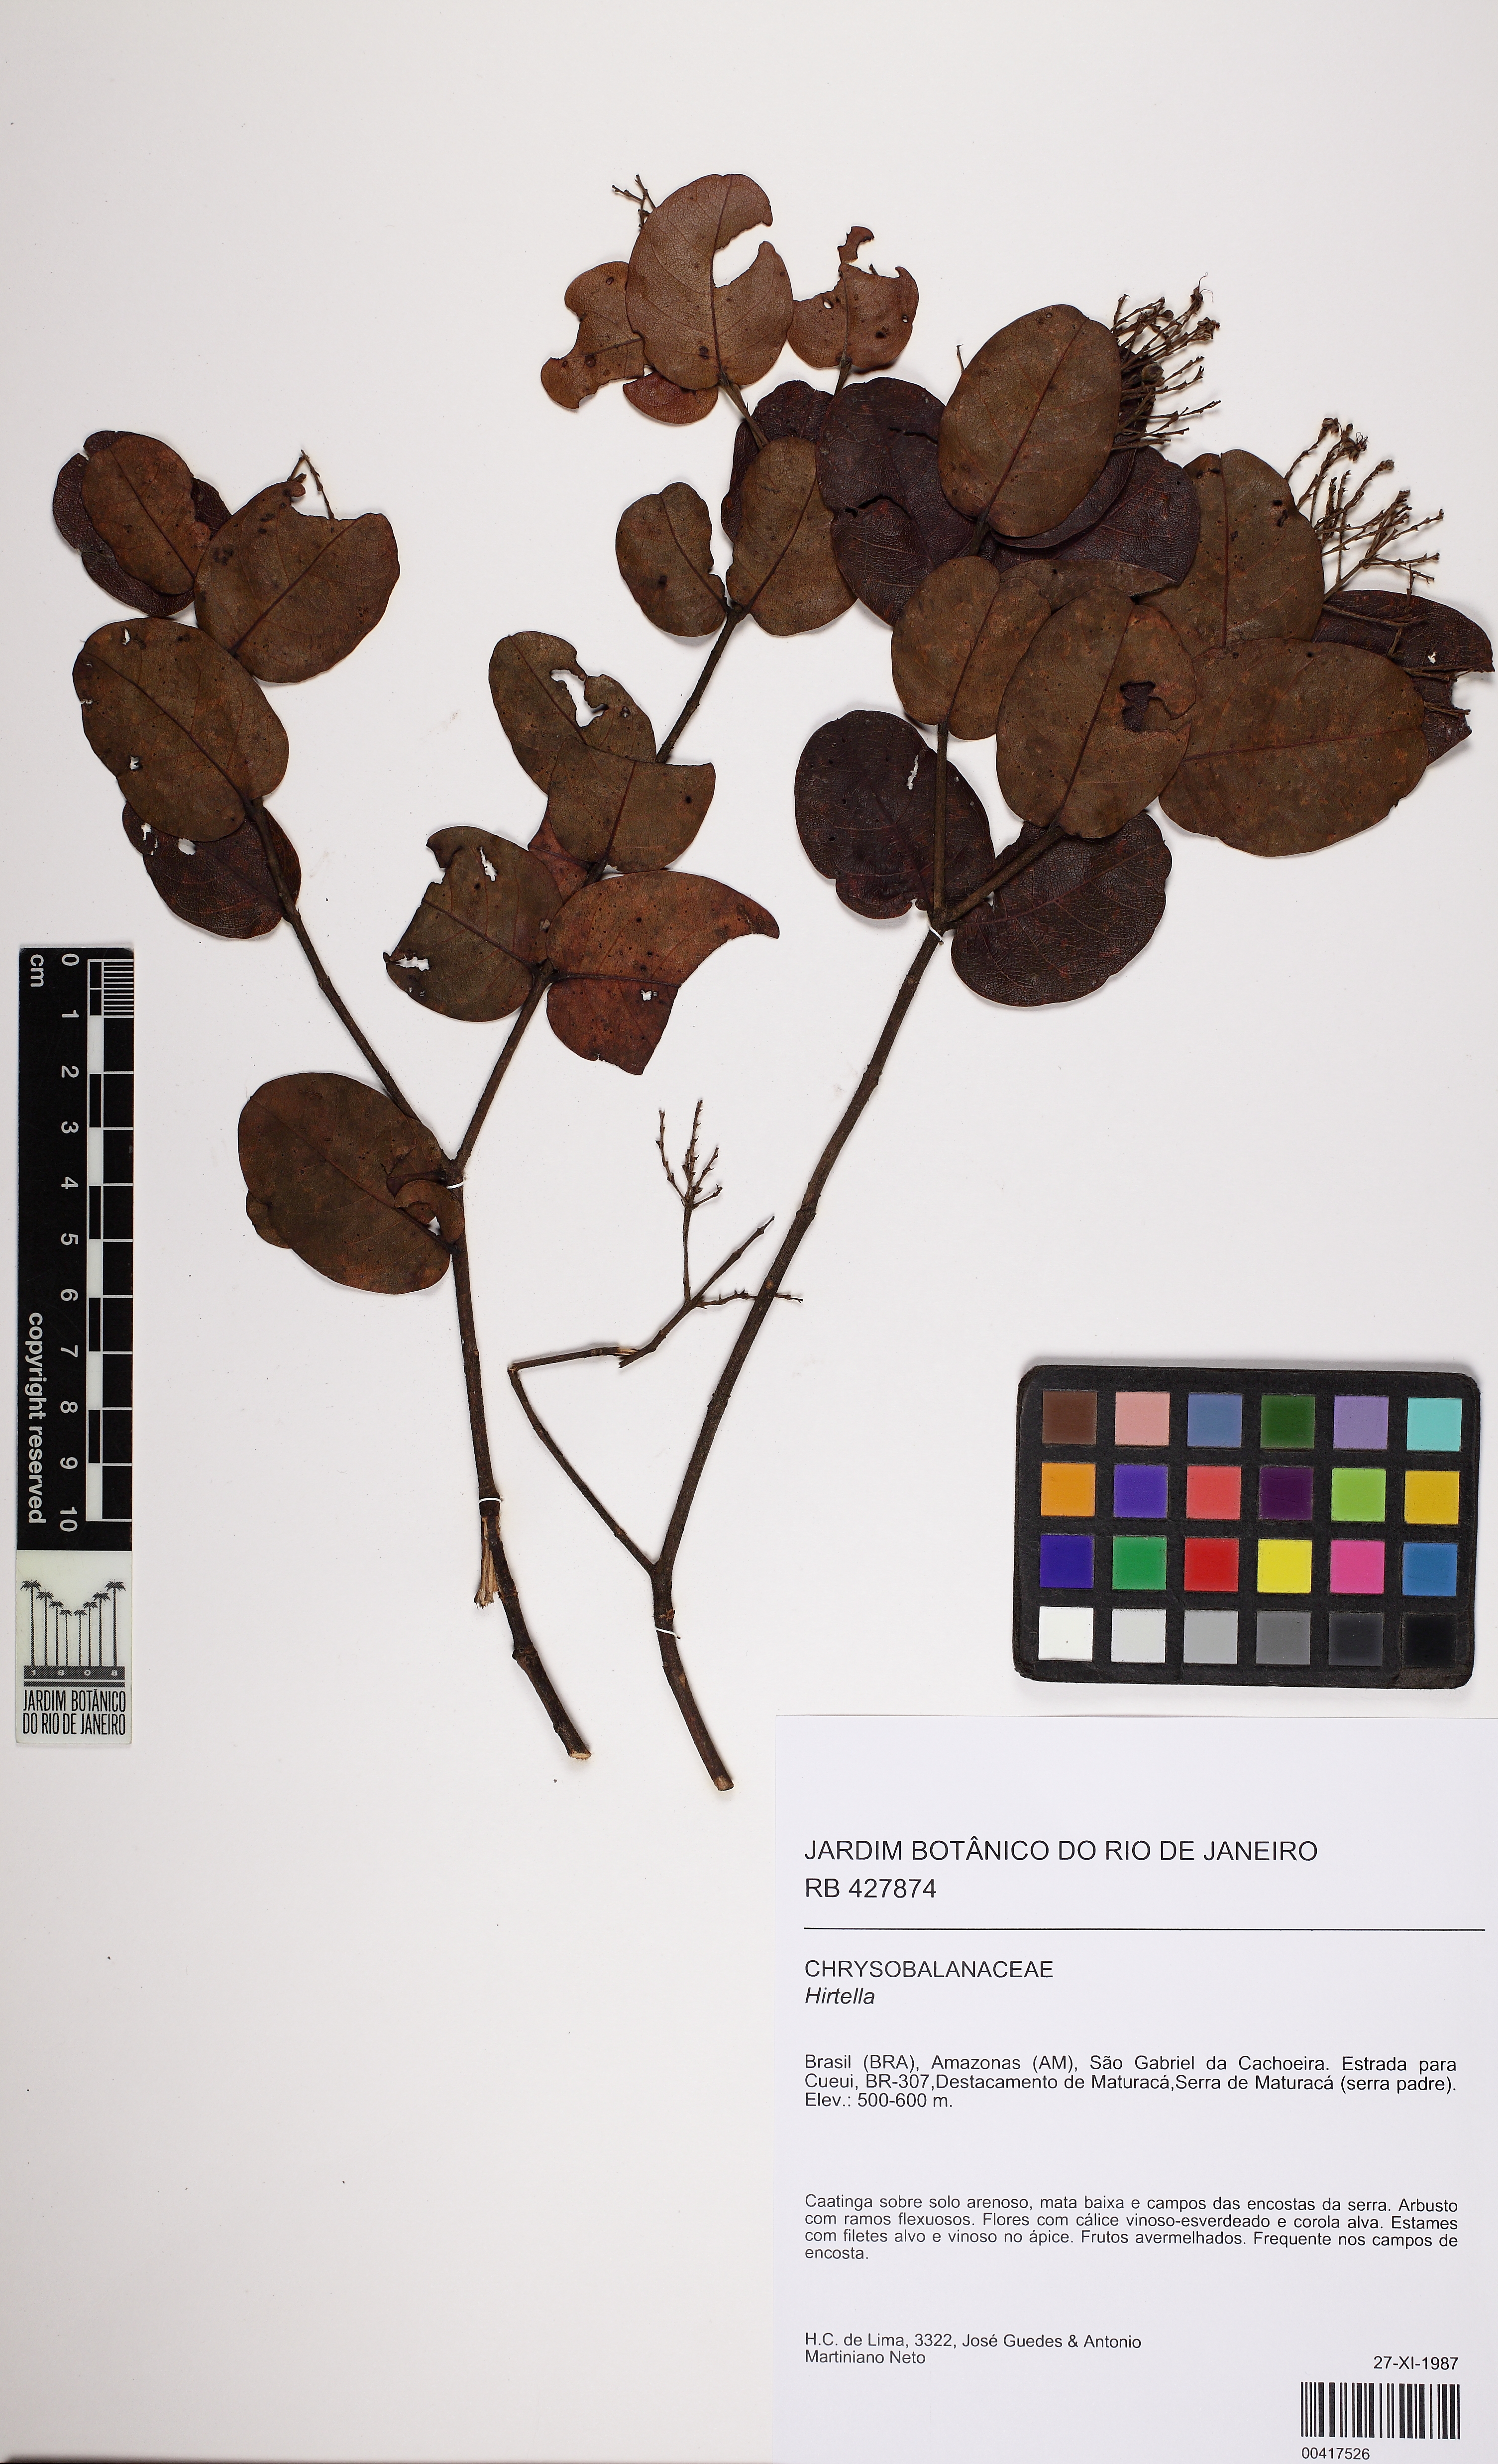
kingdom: Plantae
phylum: Tracheophyta
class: Magnoliopsida
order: Malpighiales
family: Chrysobalanaceae
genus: Hirtella
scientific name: Hirtella triandra
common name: Hairy plum
